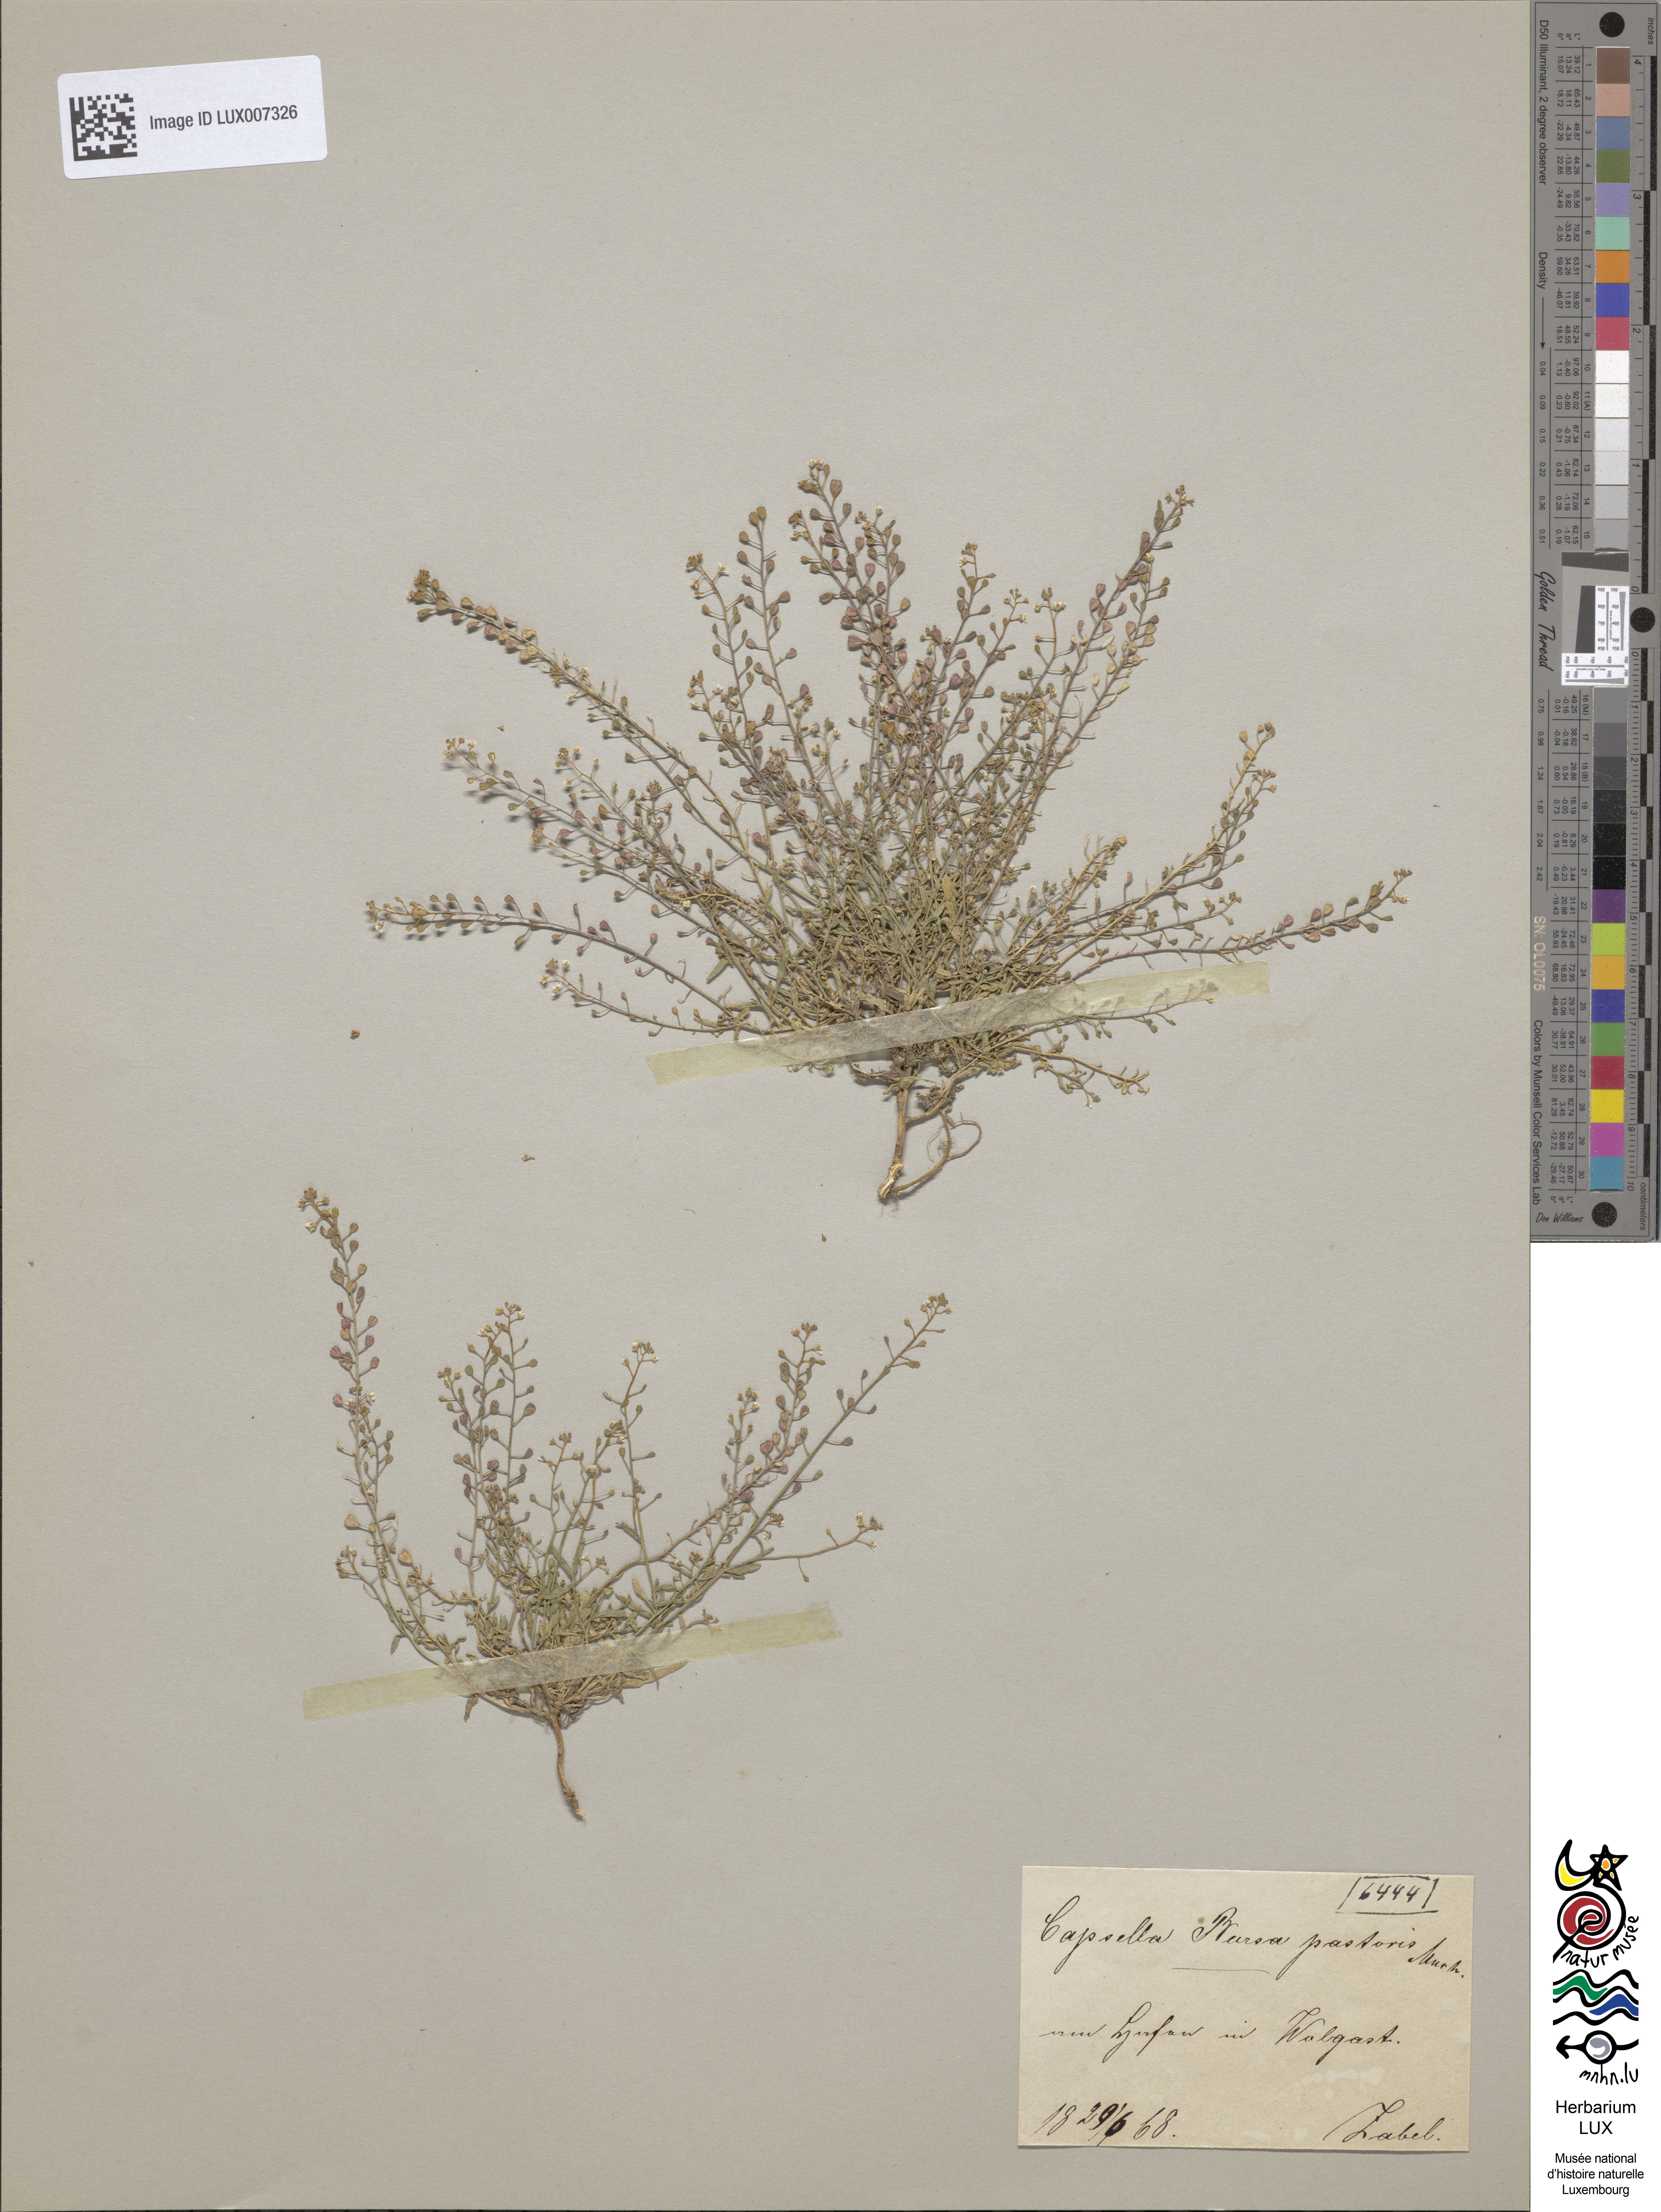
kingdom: Plantae
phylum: Tracheophyta
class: Magnoliopsida
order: Brassicales
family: Brassicaceae
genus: Capsella
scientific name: Capsella bursa-pastoris
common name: Shepherd's purse
